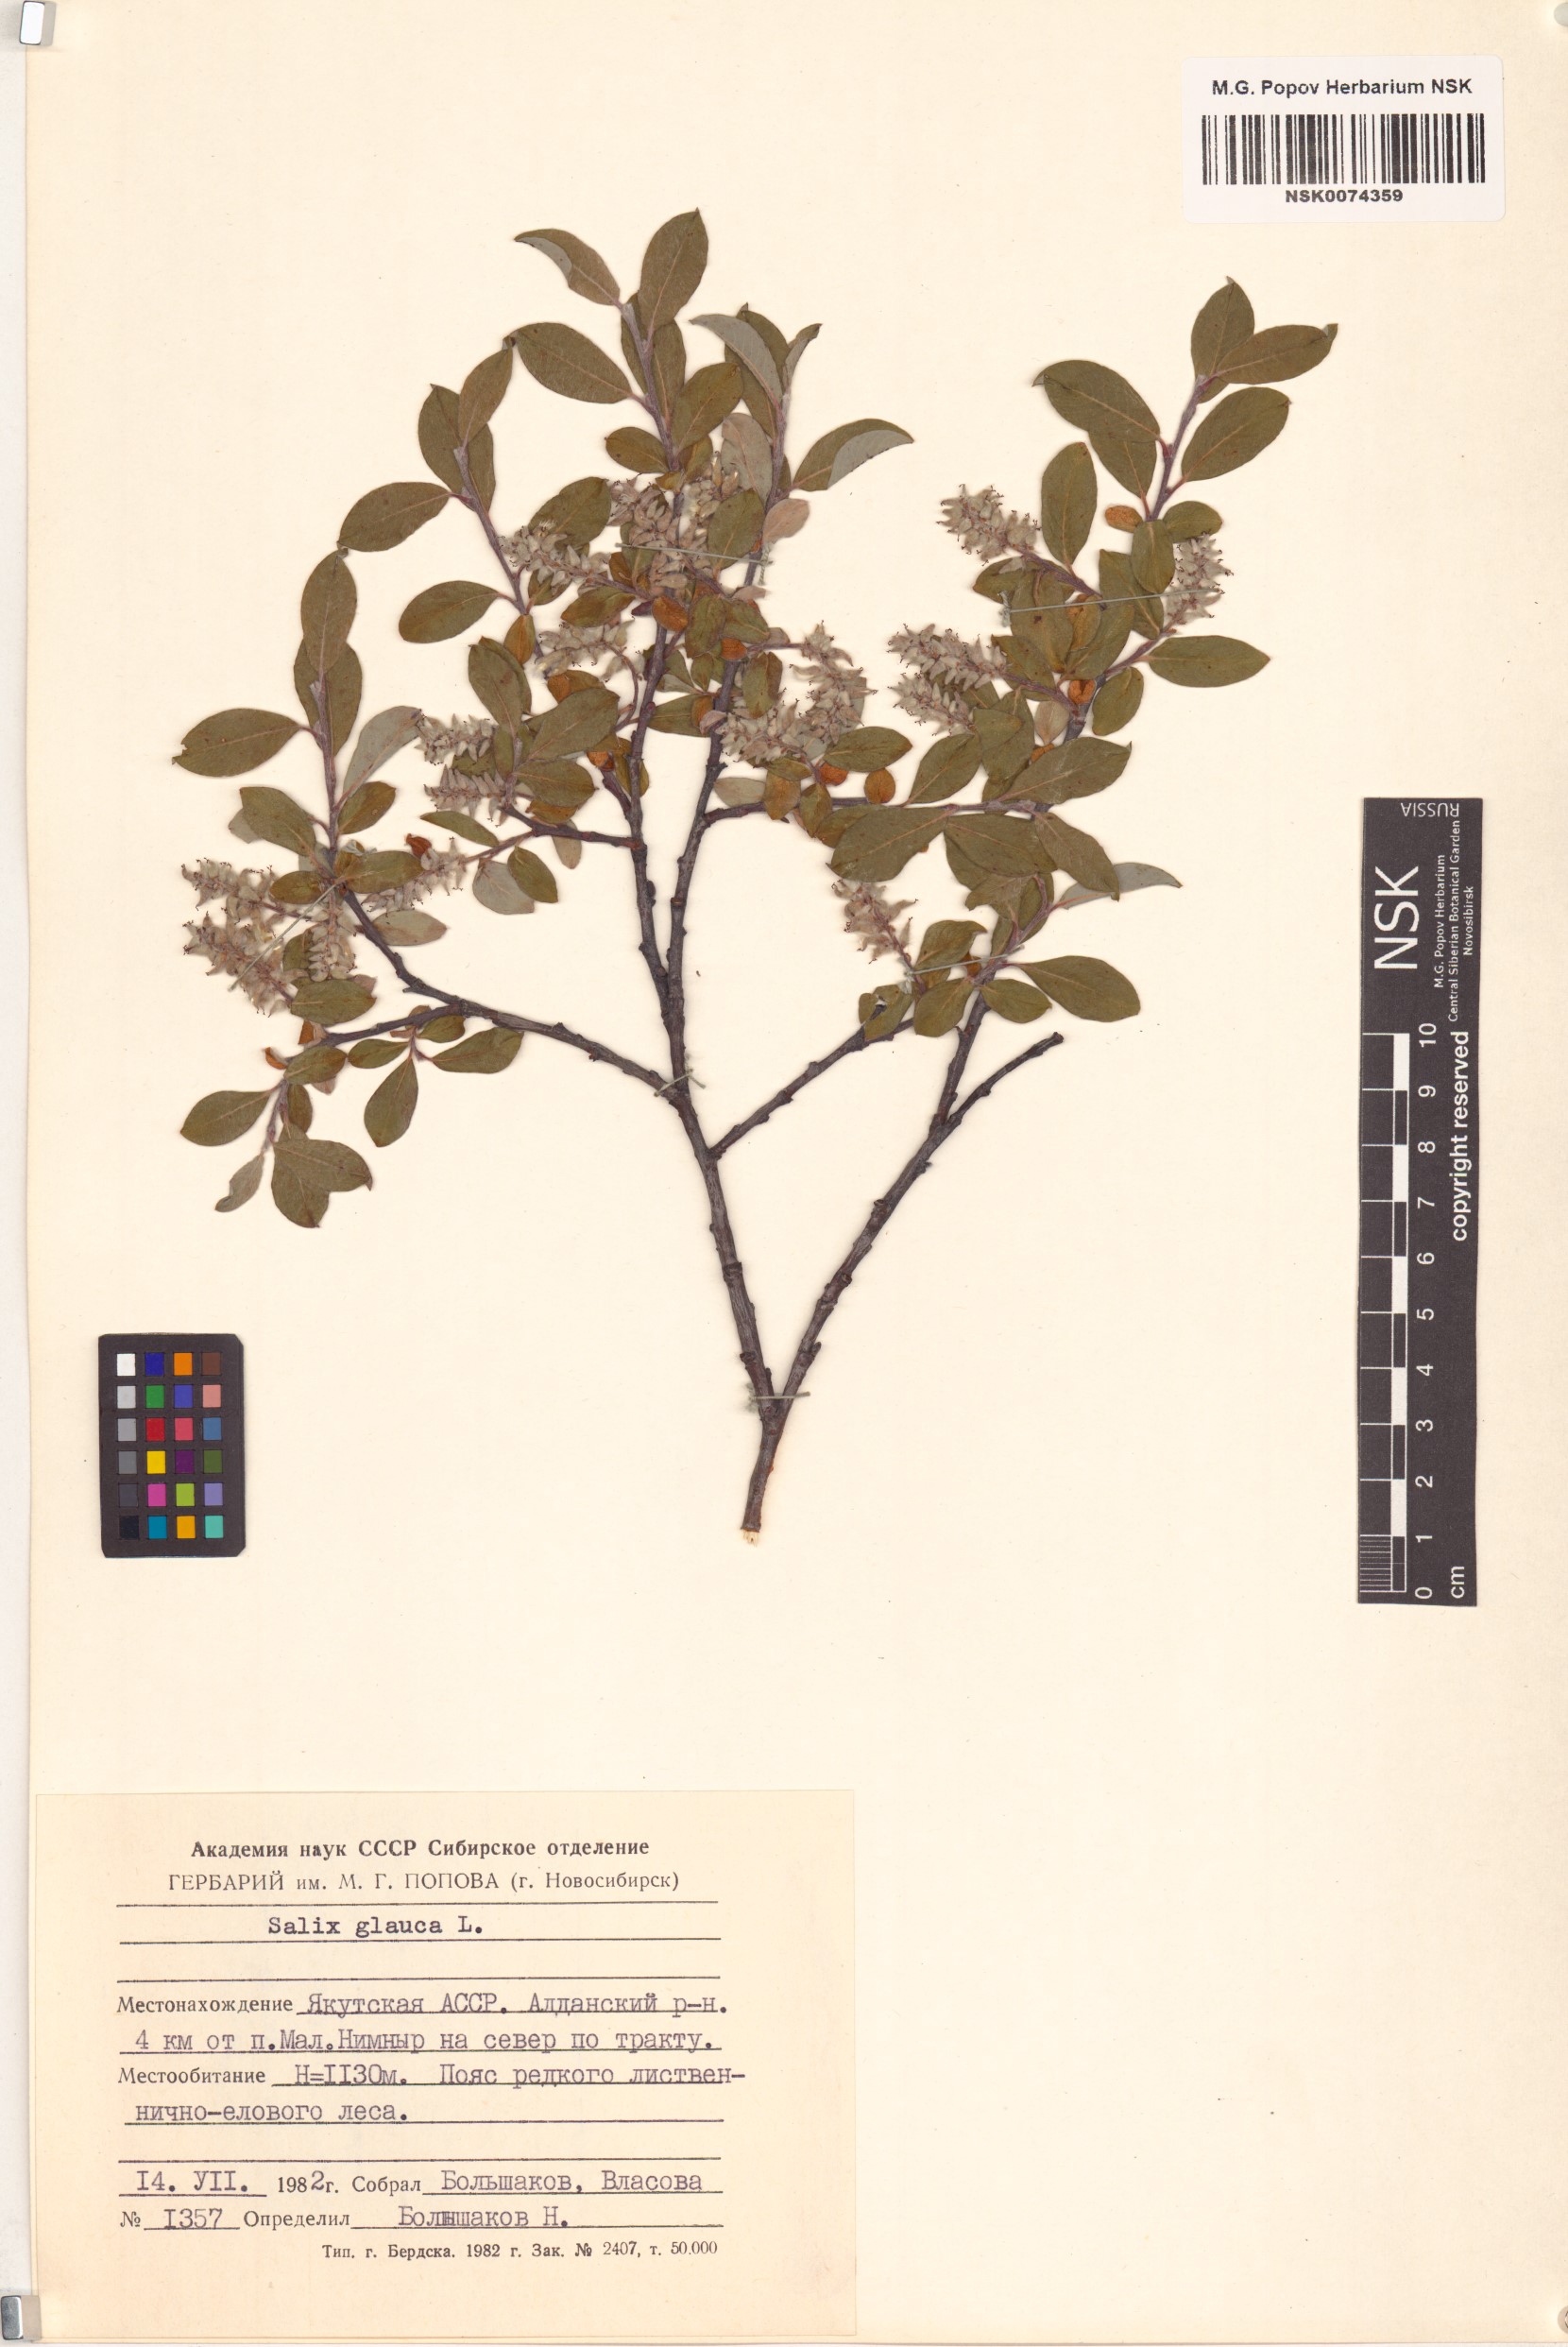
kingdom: Plantae
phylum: Tracheophyta
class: Magnoliopsida
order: Malpighiales
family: Salicaceae
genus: Salix
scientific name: Salix glauca
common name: Glaucous willow
